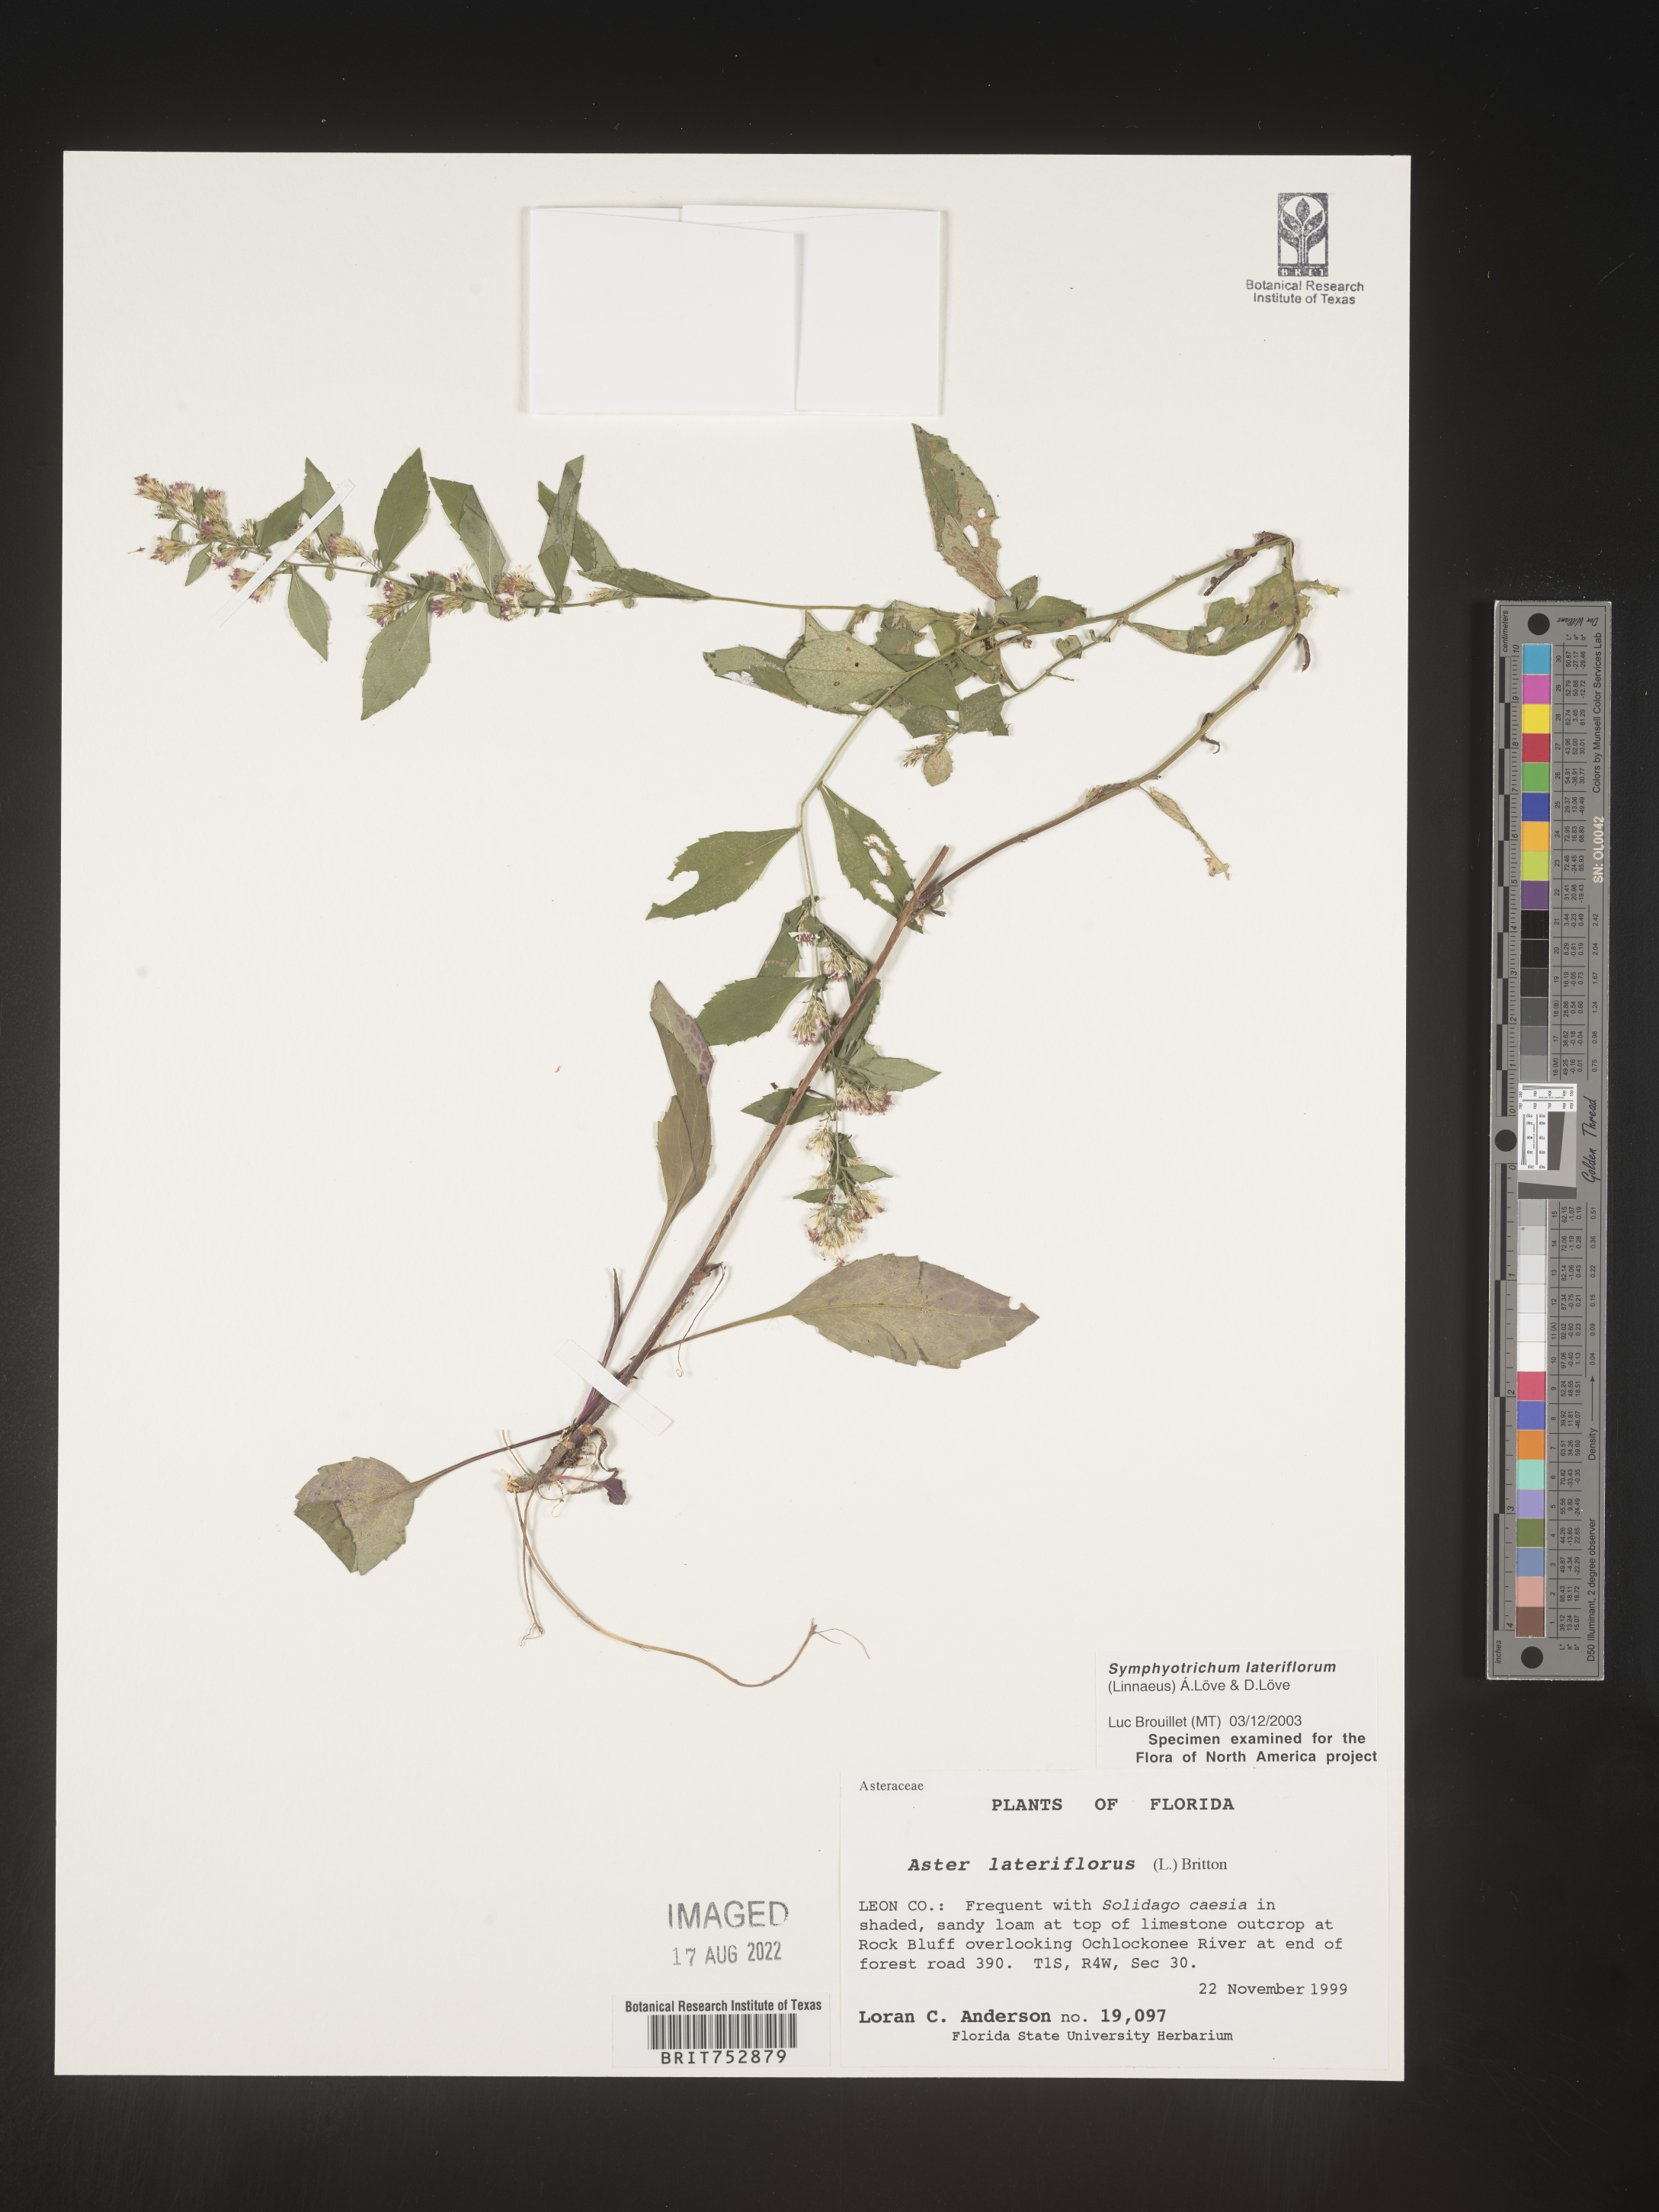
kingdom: Plantae
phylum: Tracheophyta
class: Magnoliopsida
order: Asterales
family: Asteraceae
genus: Symphyotrichum
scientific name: Symphyotrichum lateriflorum
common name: Calico aster
